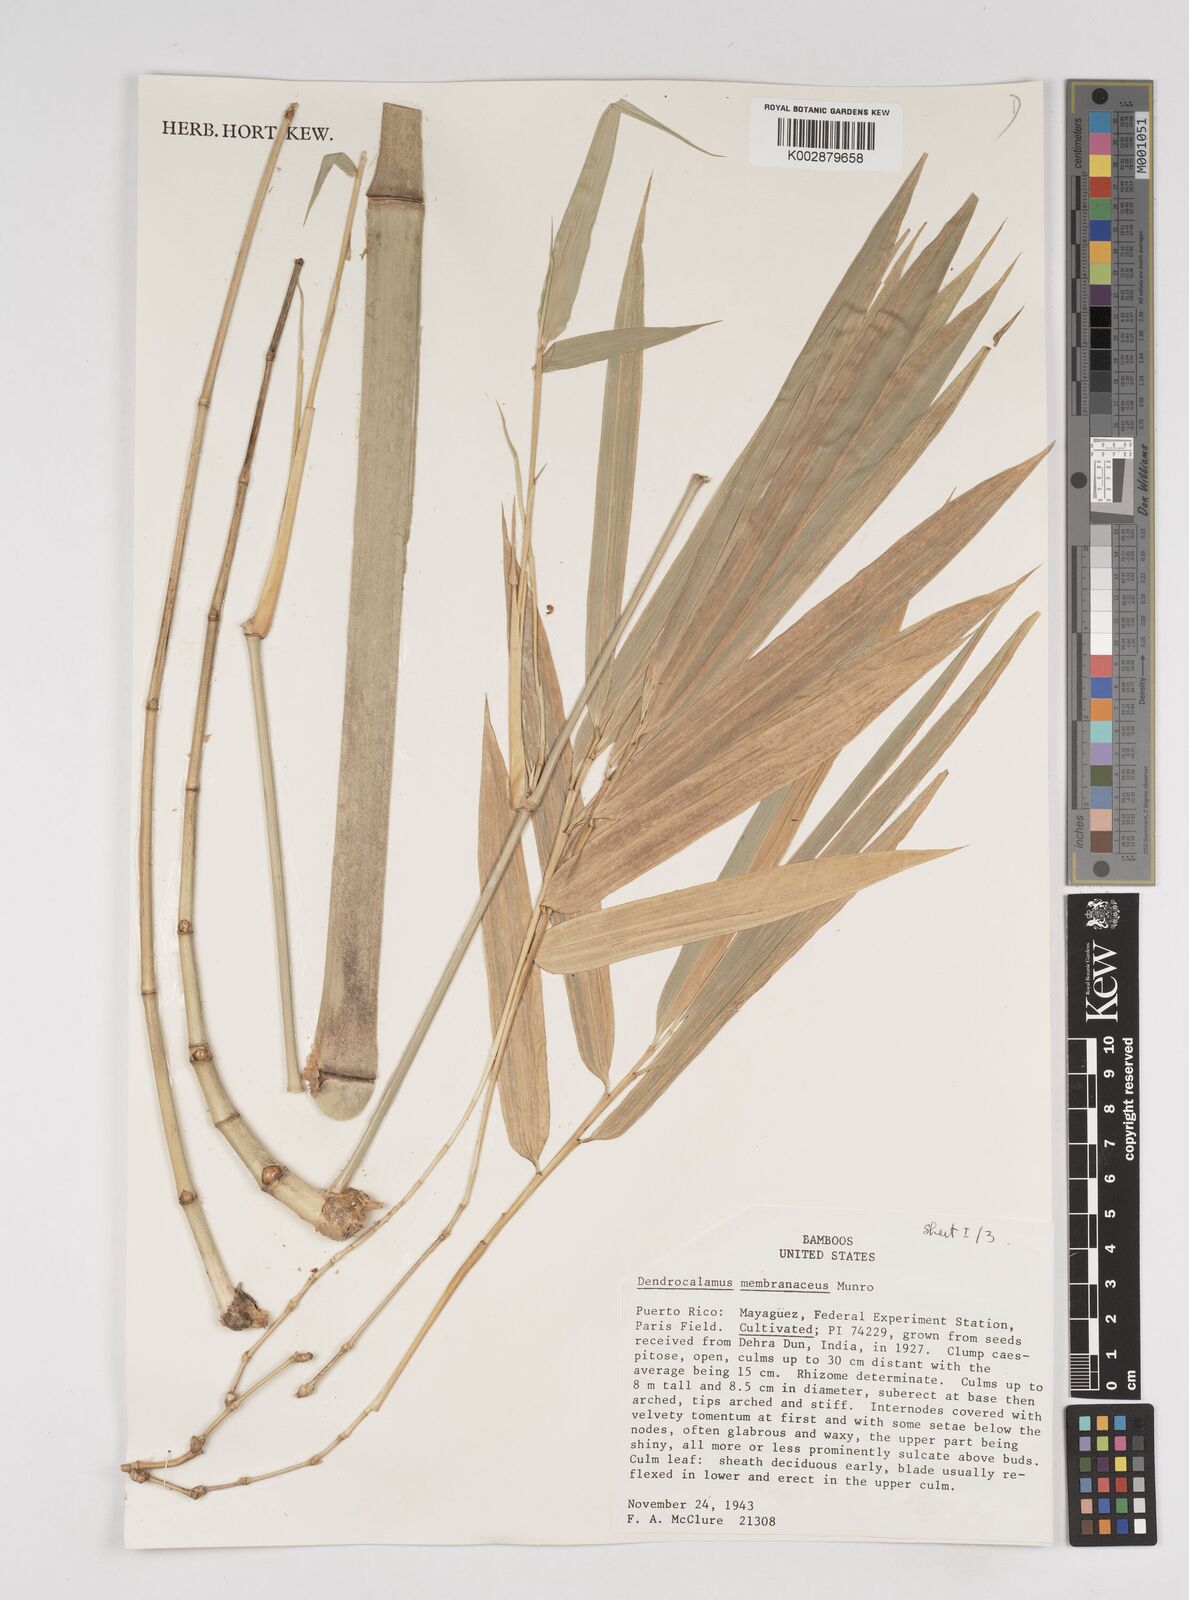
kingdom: Plantae
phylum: Tracheophyta
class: Liliopsida
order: Poales
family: Poaceae
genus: Dendrocalamus
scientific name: Dendrocalamus membranaceus
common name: White bamboo
